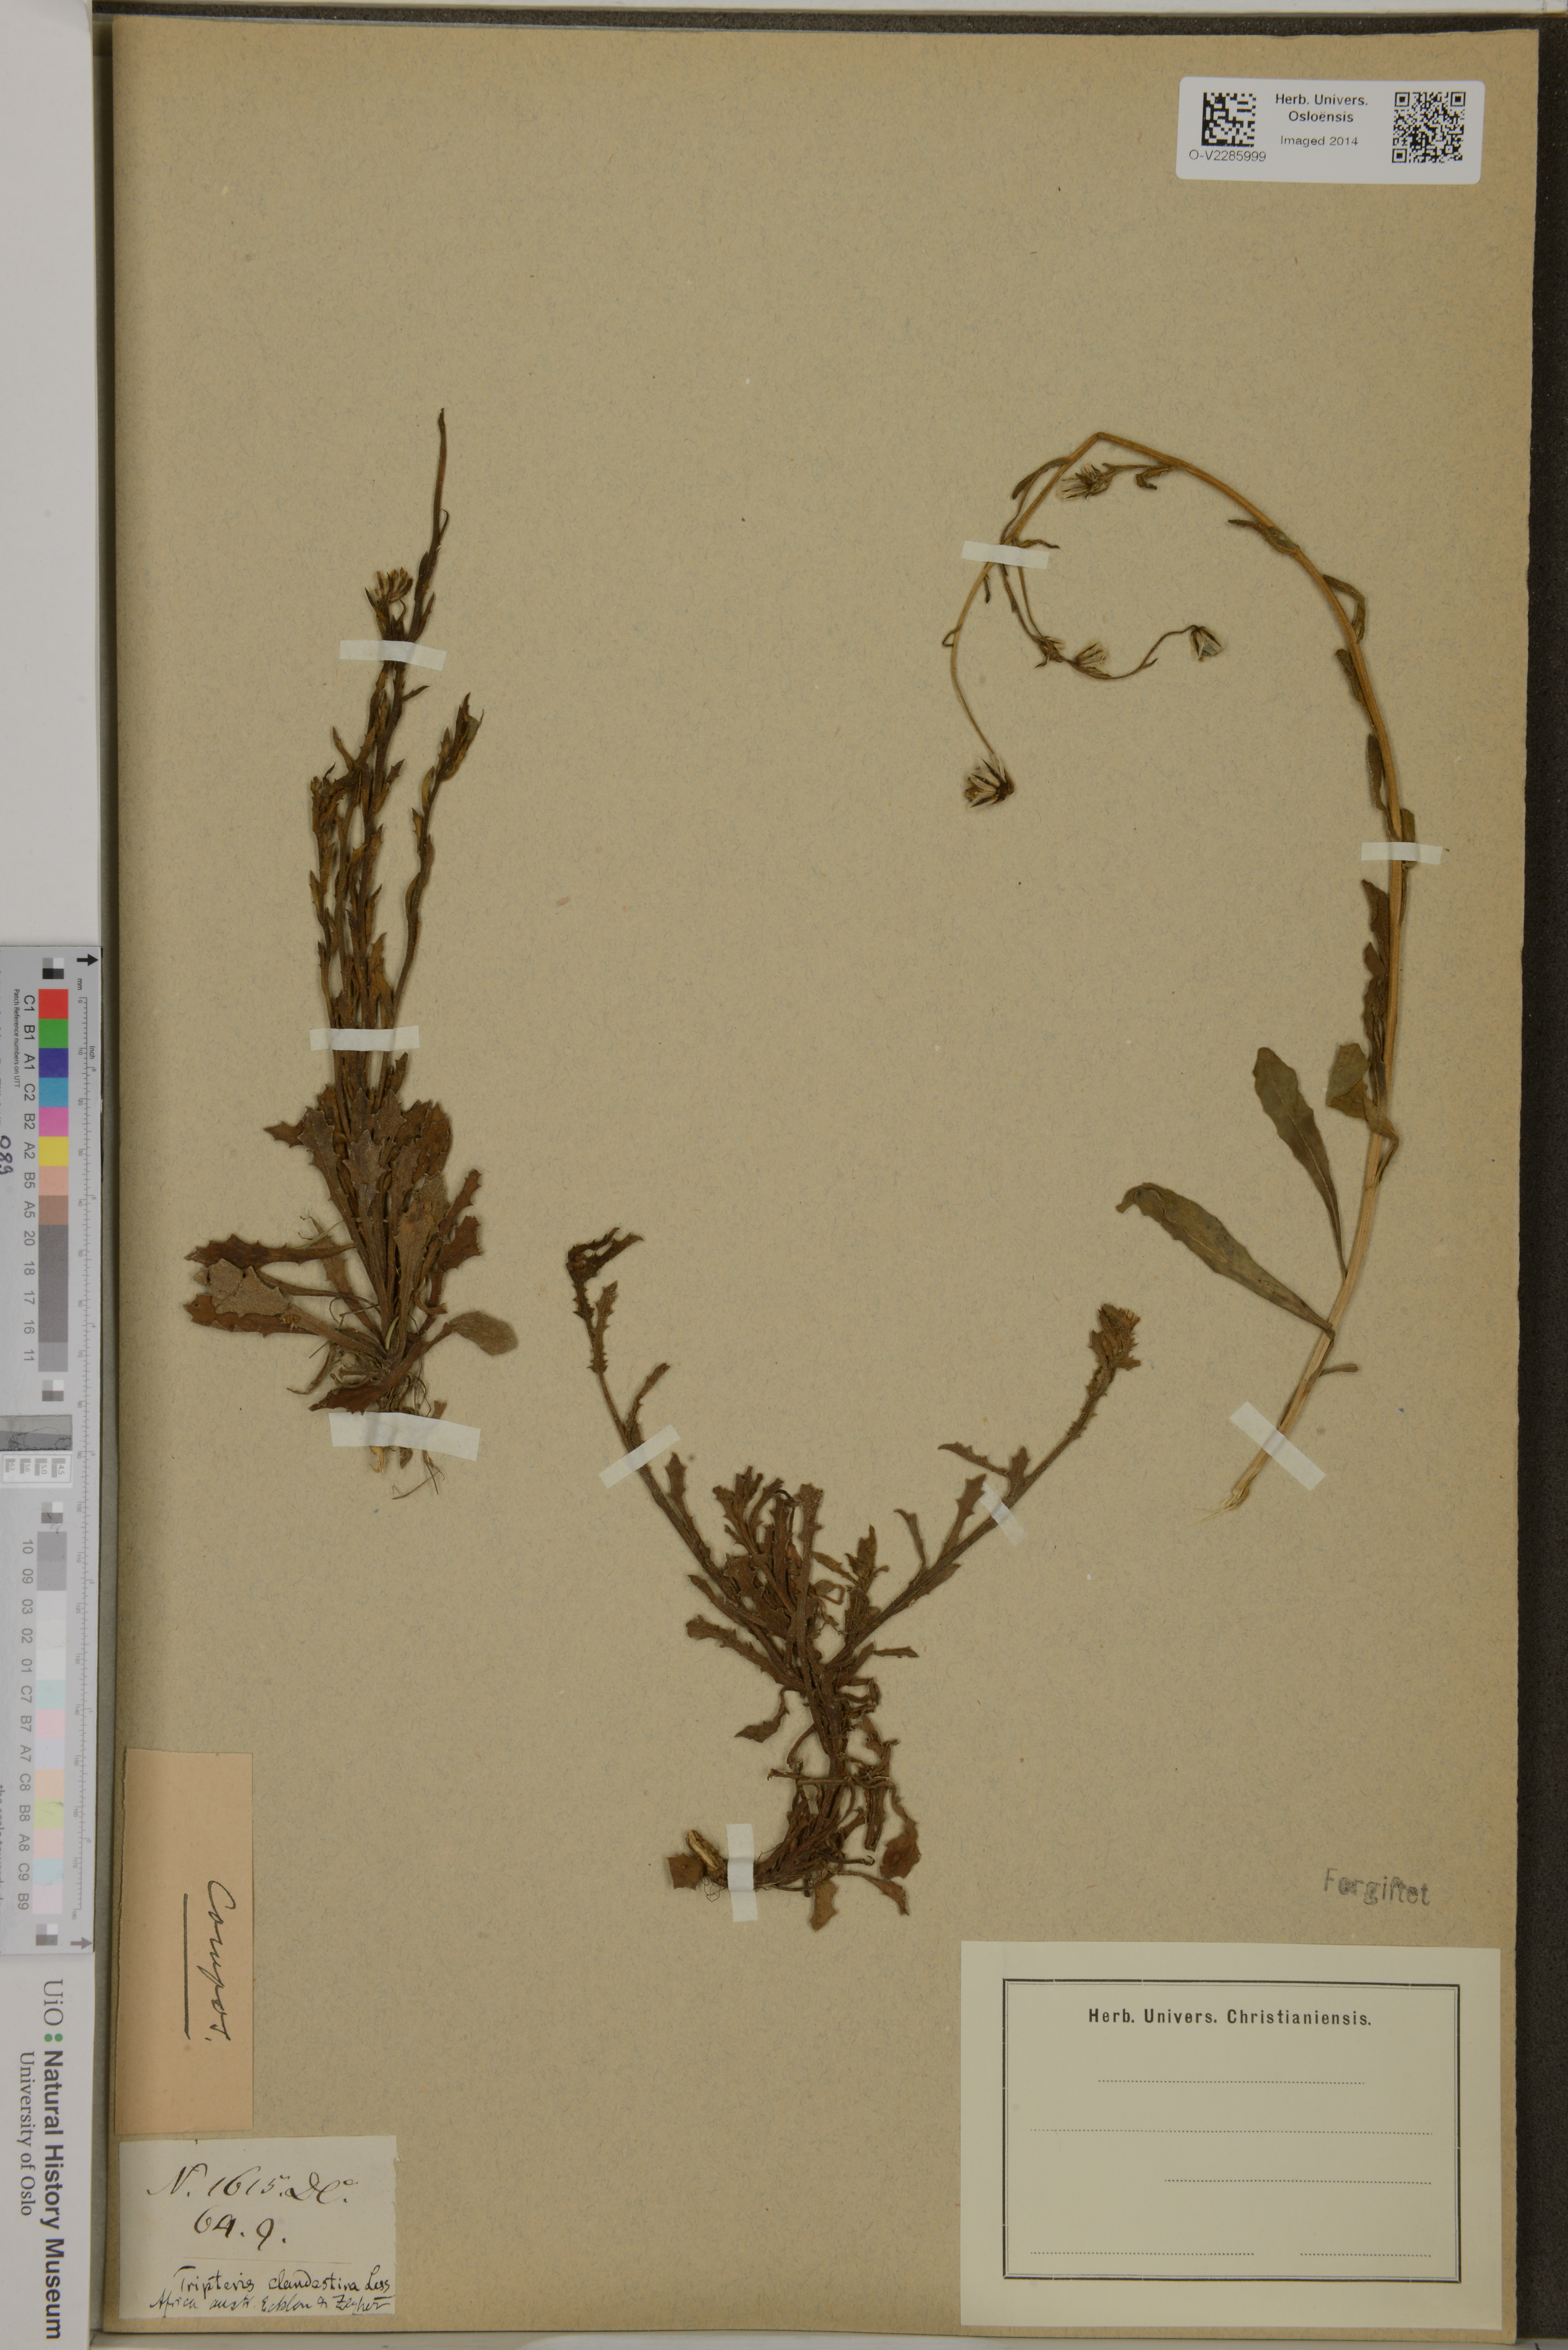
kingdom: Plantae
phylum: Tracheophyta
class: Magnoliopsida
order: Asterales
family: Asteraceae
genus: Osteospermum
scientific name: Osteospermum monstrosum
